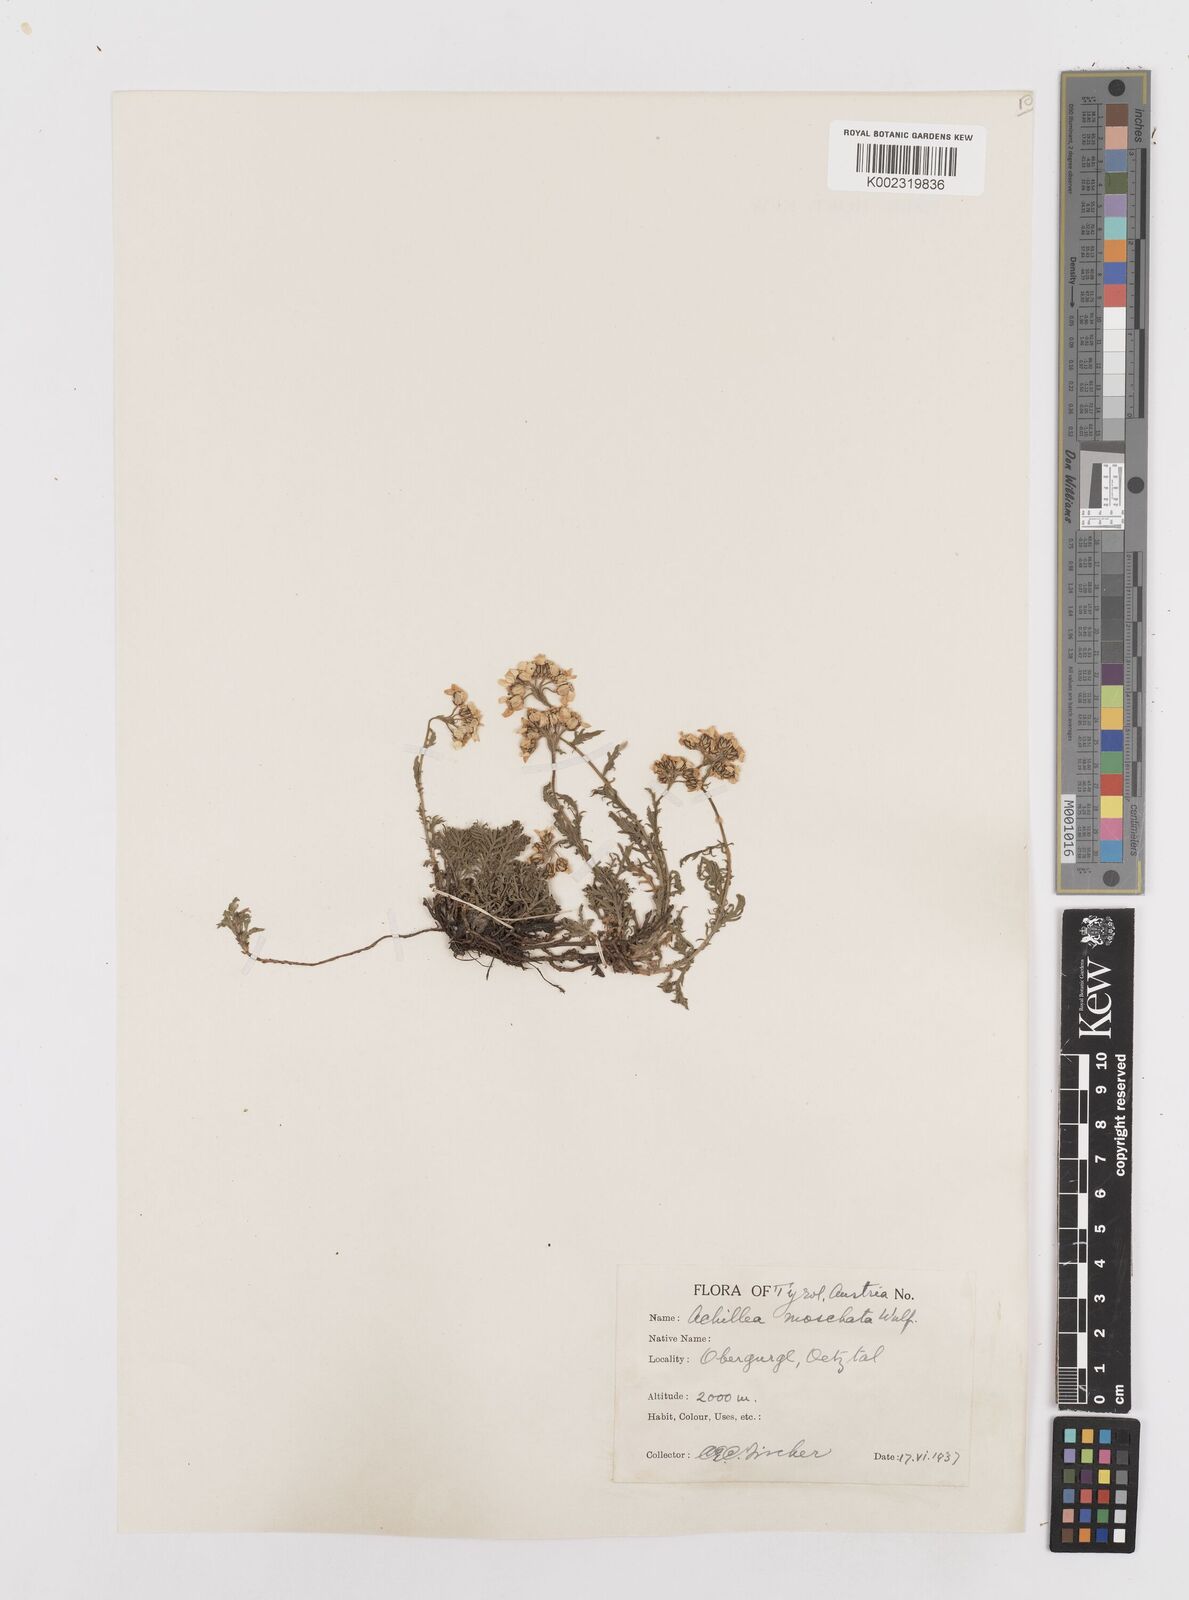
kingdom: Plantae
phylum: Tracheophyta
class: Magnoliopsida
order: Asterales
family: Asteraceae
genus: Achillea
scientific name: Achillea erba-rotta
